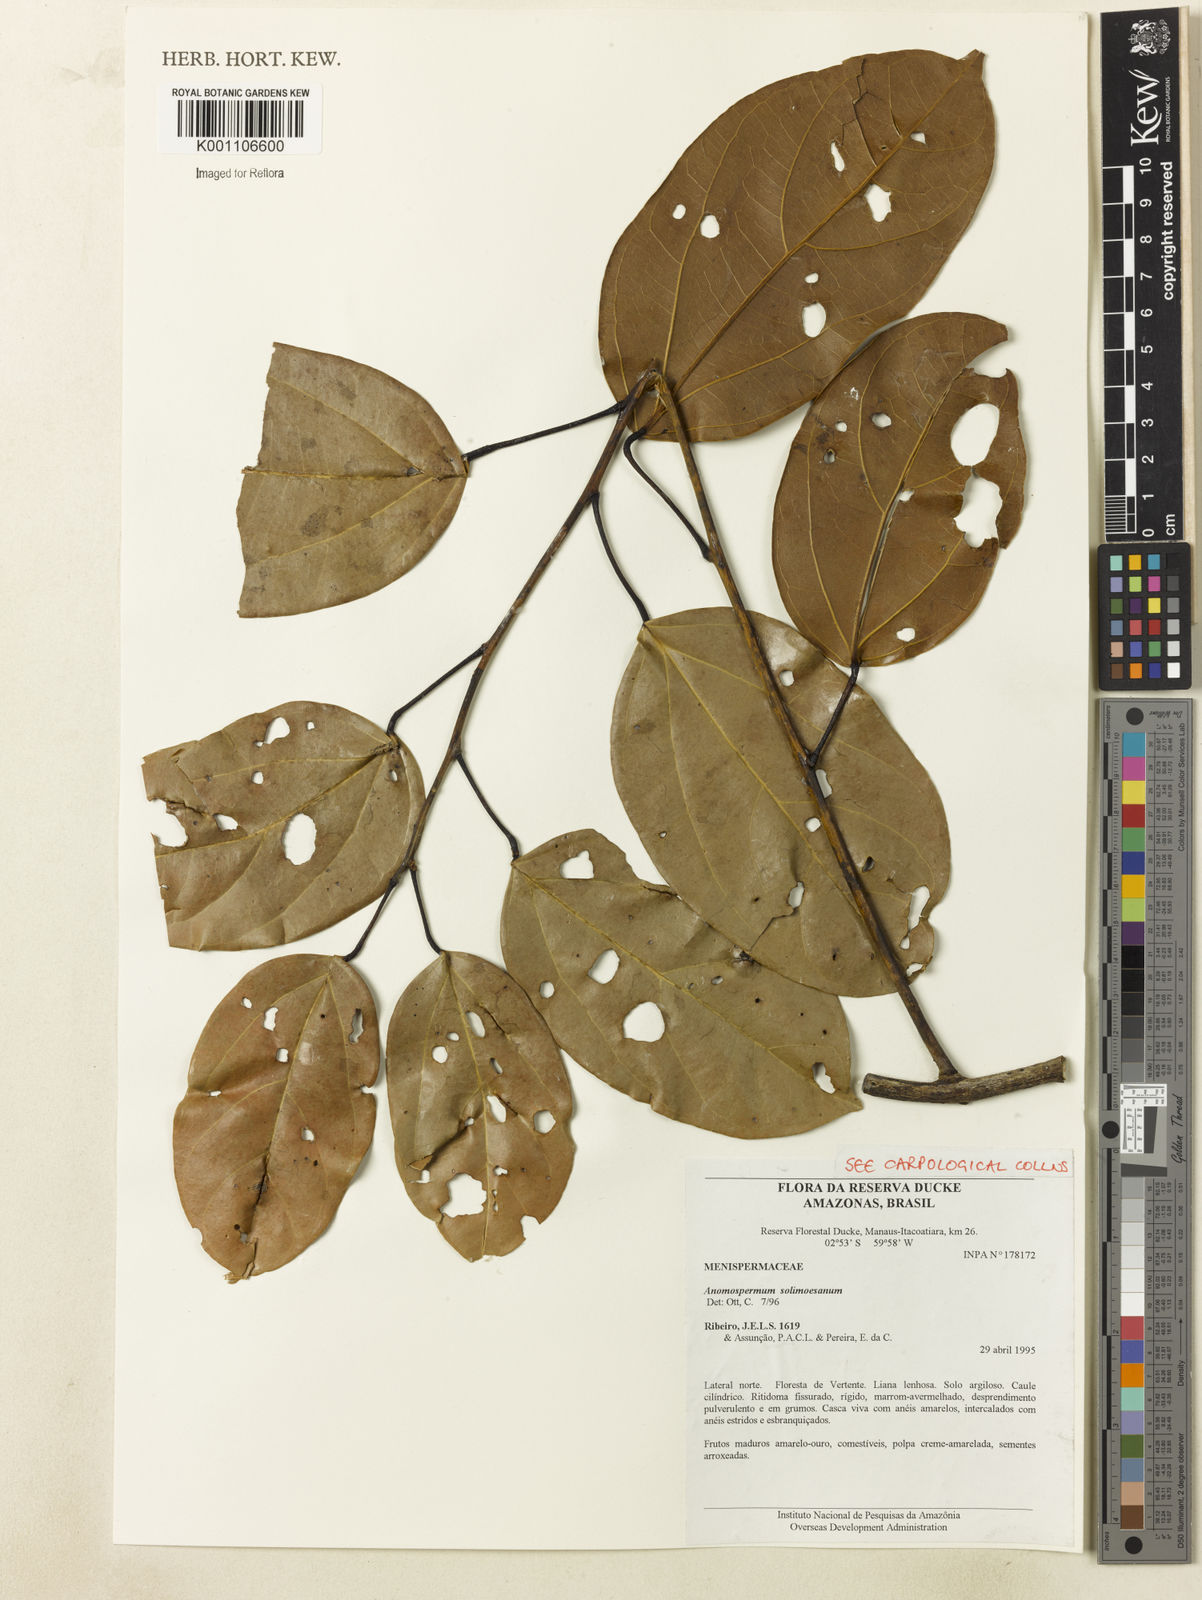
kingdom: Plantae
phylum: Tracheophyta
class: Magnoliopsida
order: Ranunculales
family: Menispermaceae
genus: Elissarrhena
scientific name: Elissarrhena solimoesana
